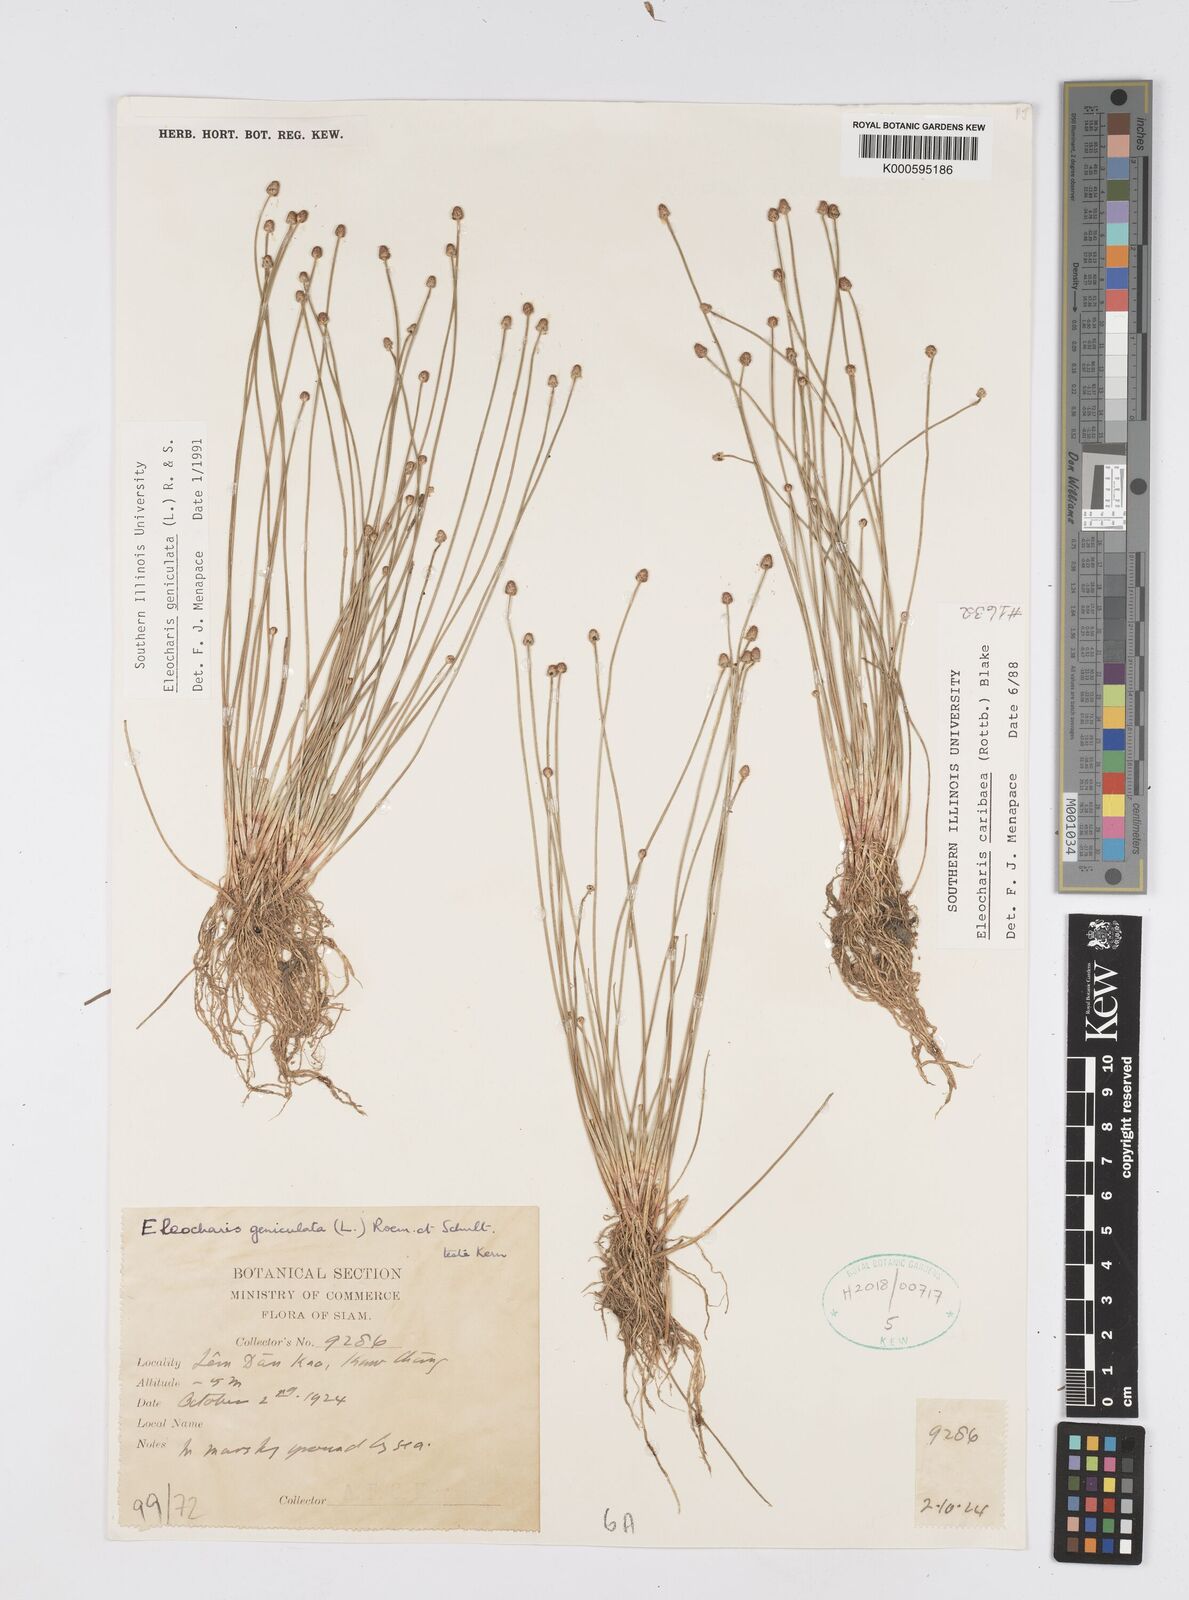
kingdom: Plantae
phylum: Tracheophyta
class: Liliopsida
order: Poales
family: Cyperaceae
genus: Eleocharis
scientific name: Eleocharis geniculata
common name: Canada spikesedge
